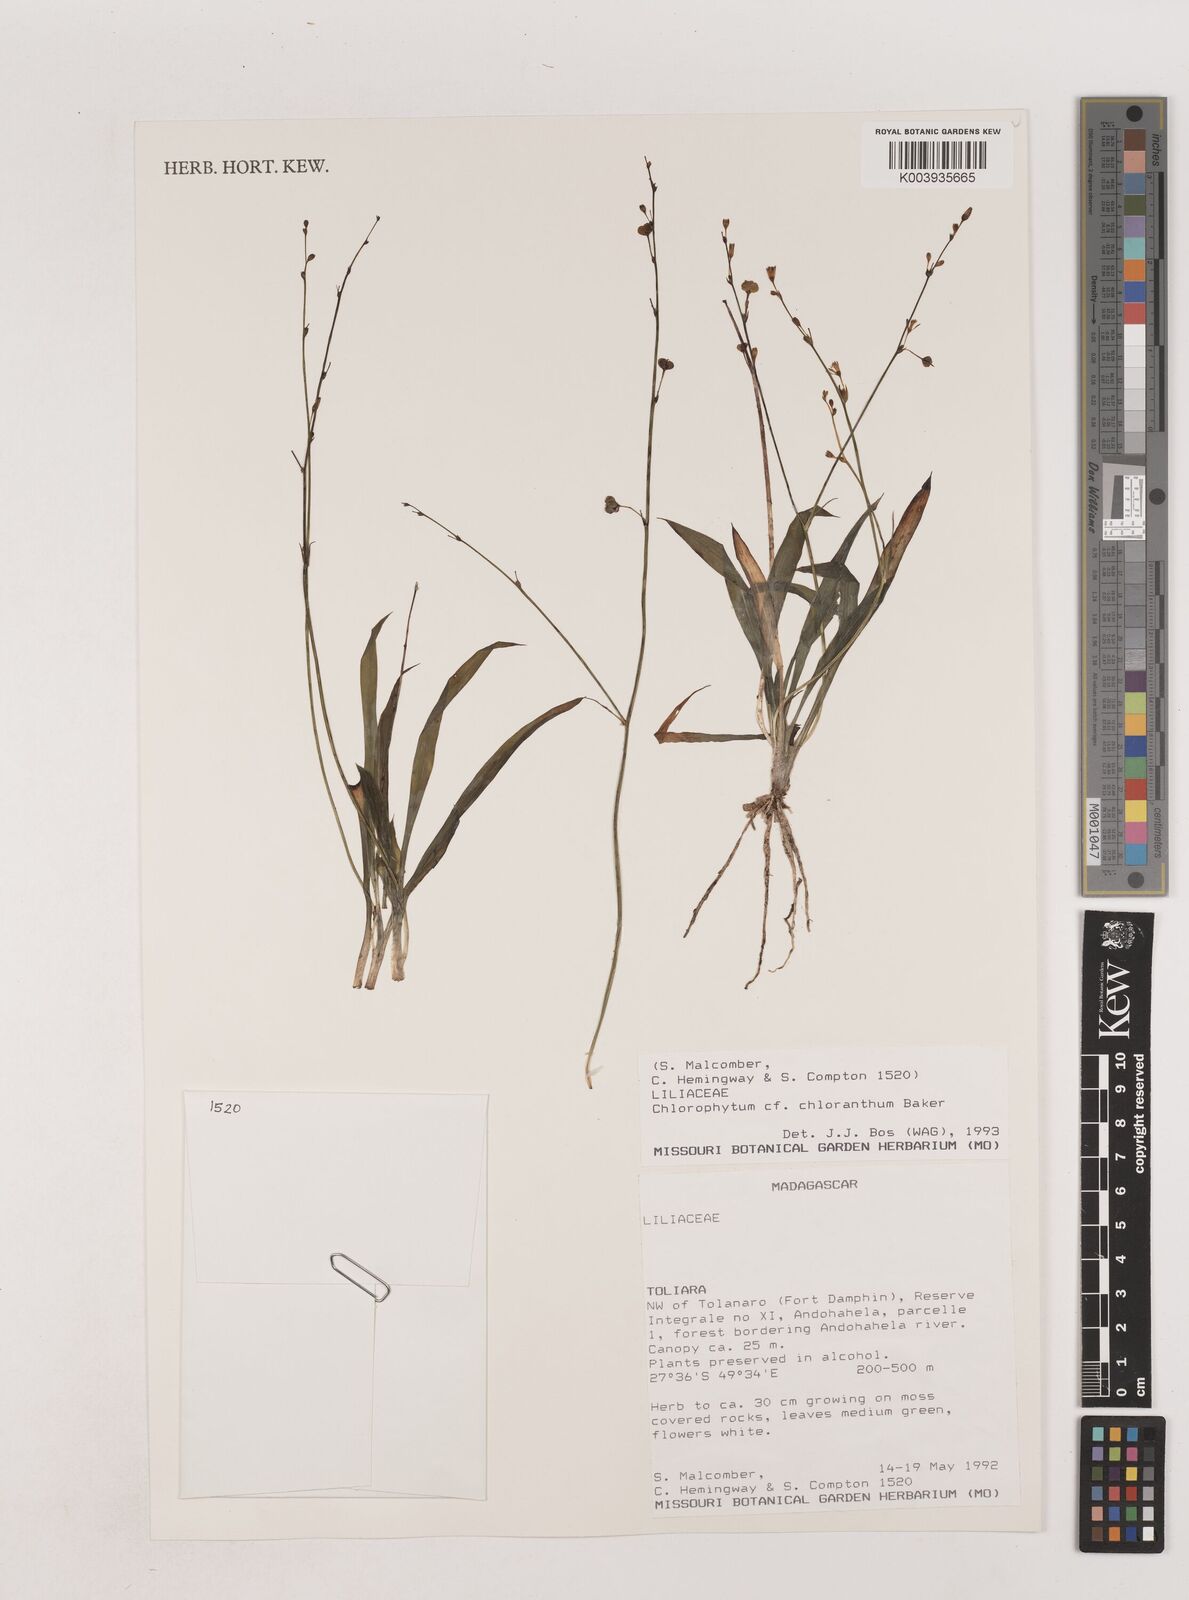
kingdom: Plantae
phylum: Tracheophyta
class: Liliopsida
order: Asparagales
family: Asparagaceae
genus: Chlorophytum
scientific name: Chlorophytum chloranthum
